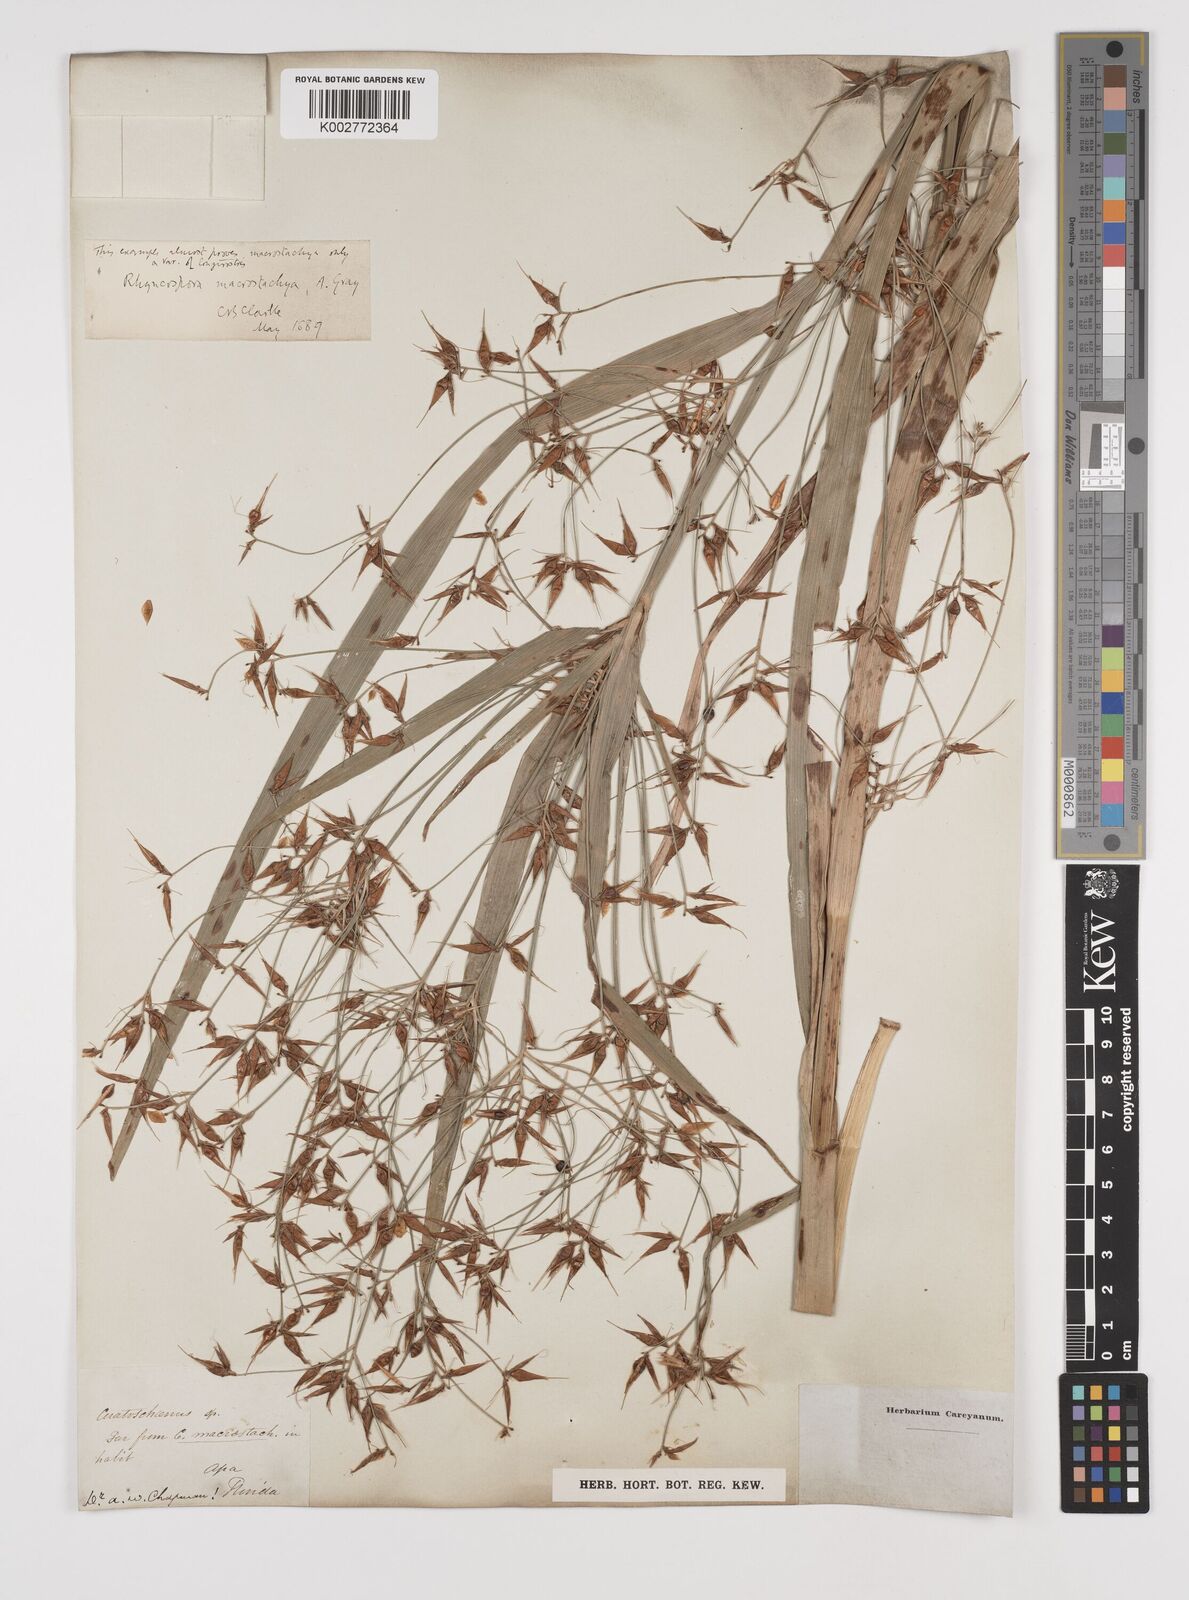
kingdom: Plantae
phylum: Tracheophyta
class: Liliopsida
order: Poales
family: Cyperaceae
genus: Rhynchospora
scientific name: Rhynchospora corniculata
